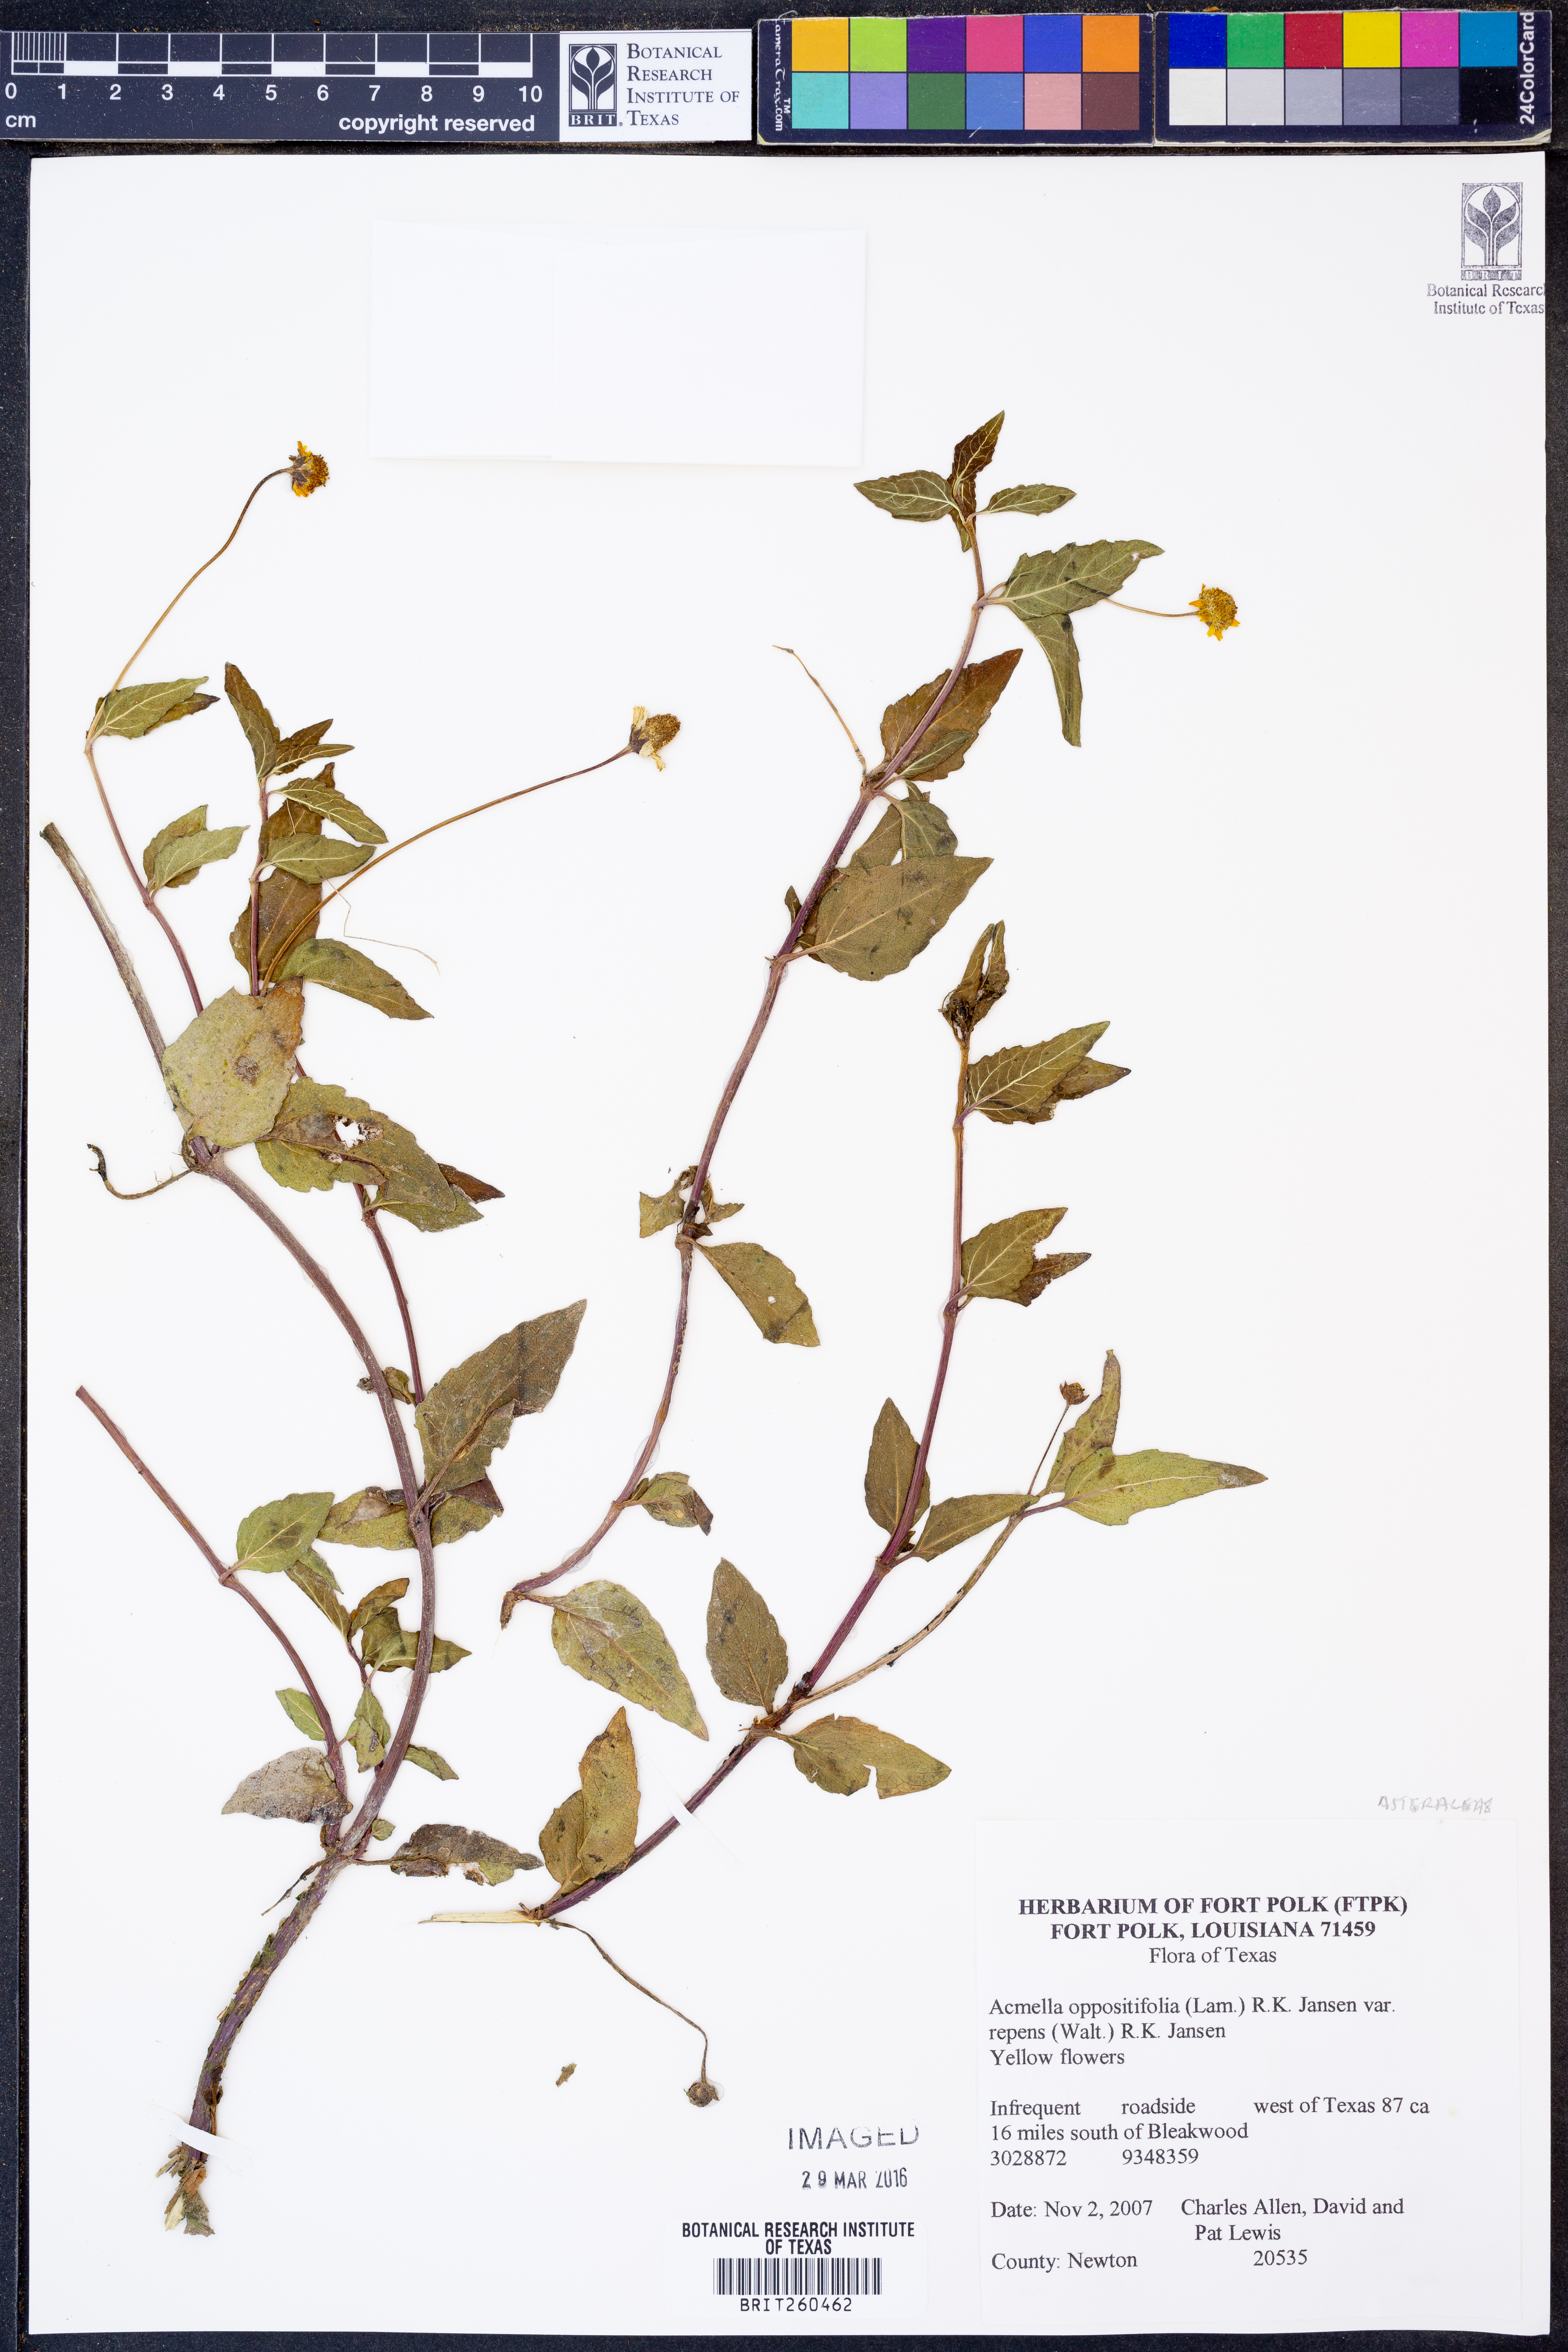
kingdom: Plantae
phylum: Tracheophyta
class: Magnoliopsida
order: Asterales
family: Asteraceae
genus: Acmella
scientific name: Acmella repens
